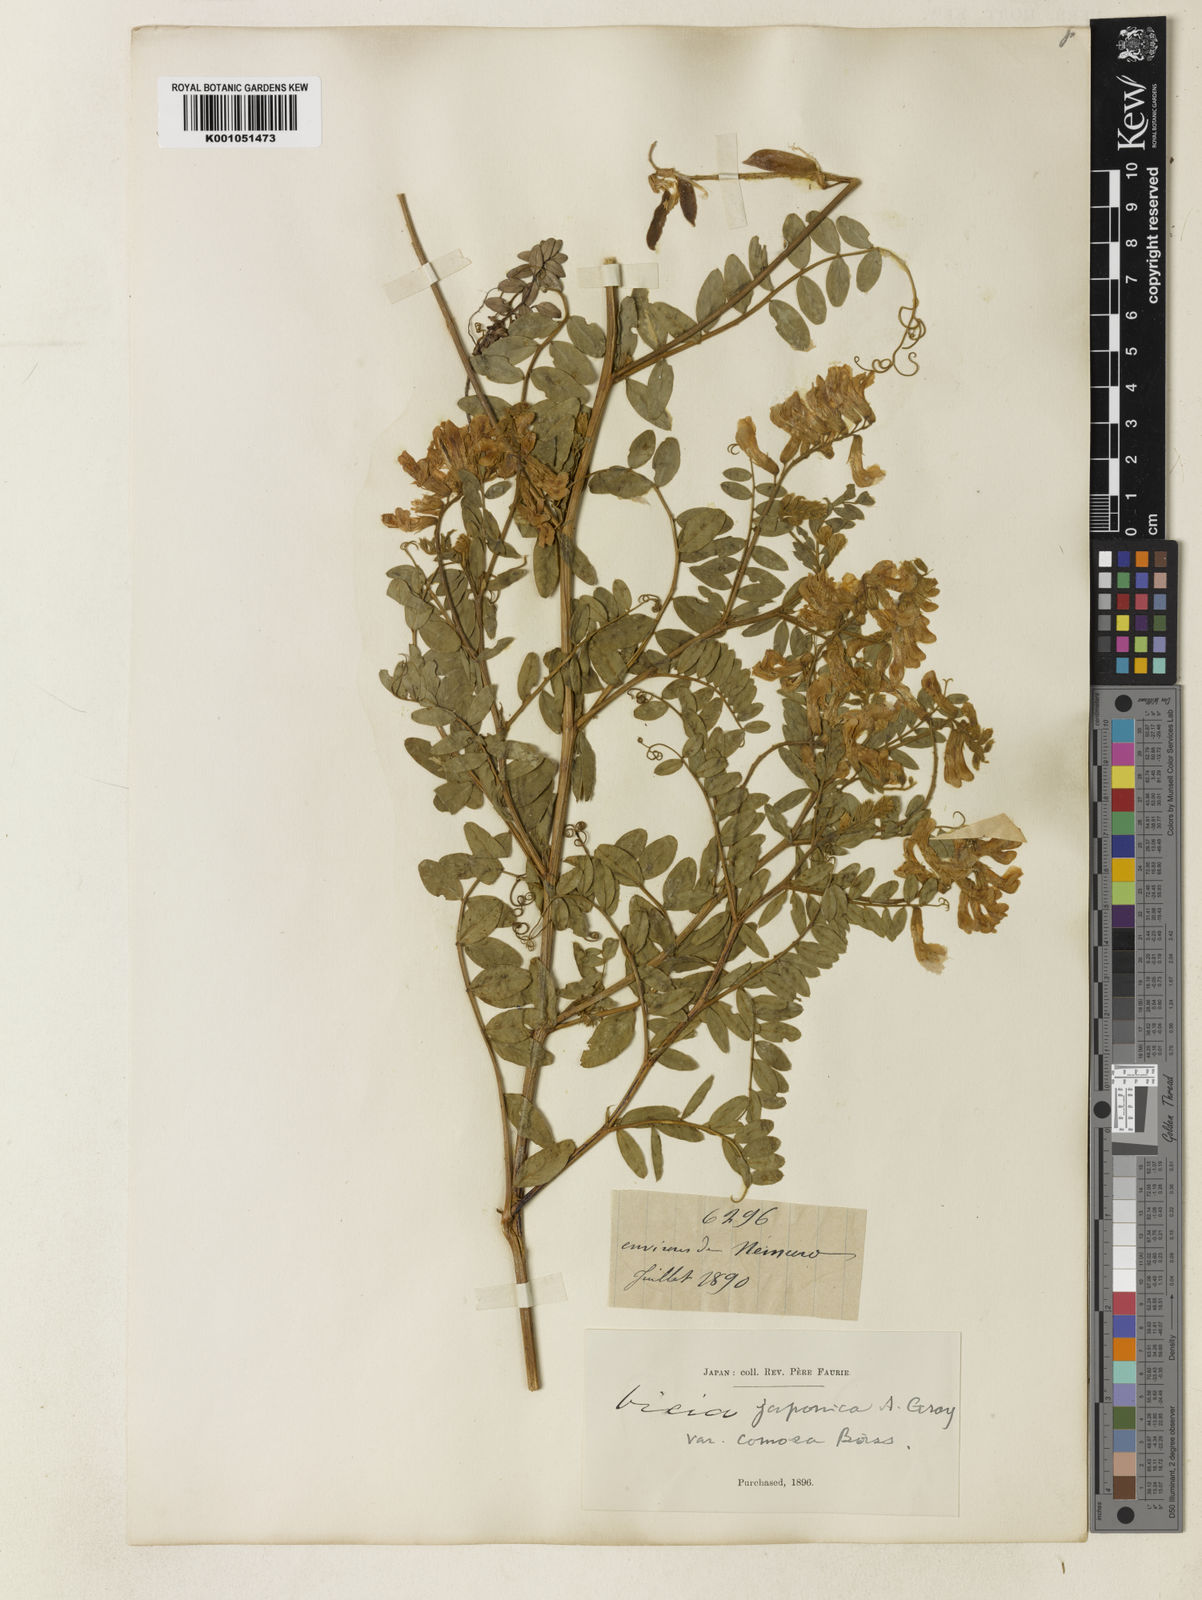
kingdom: Plantae
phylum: Tracheophyta
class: Magnoliopsida
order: Fabales
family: Fabaceae
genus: Vicia
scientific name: Vicia japonica
